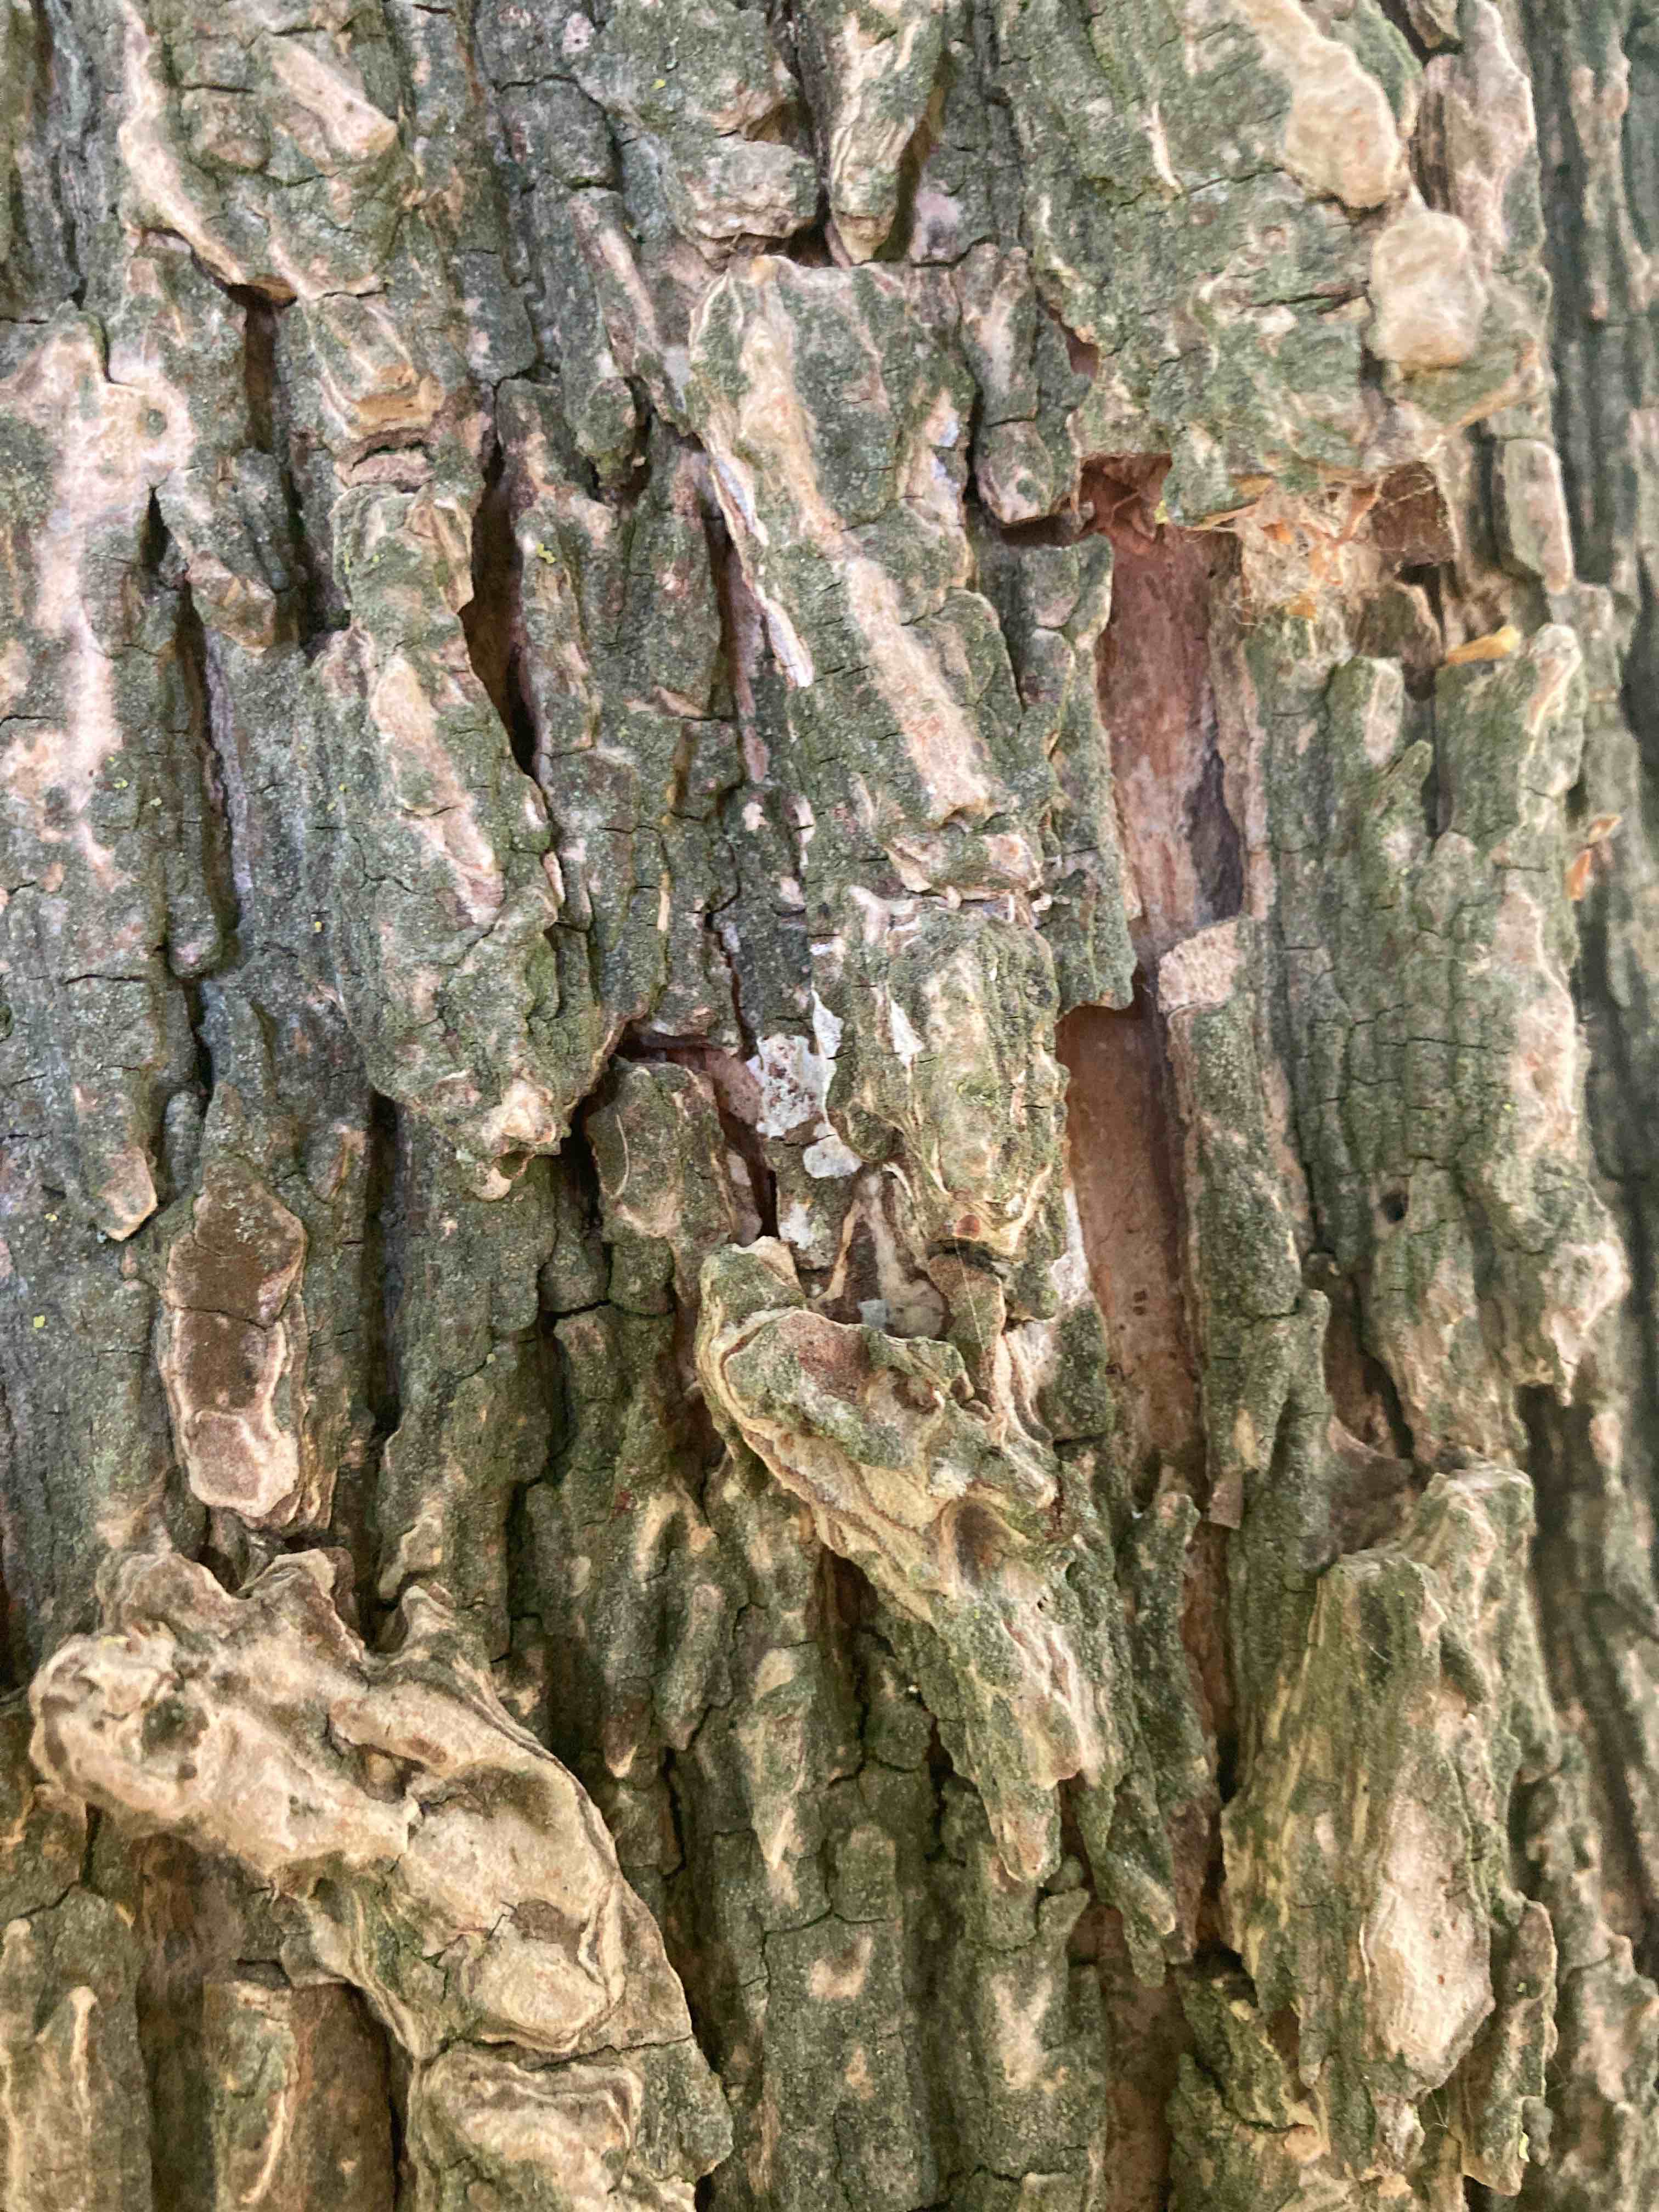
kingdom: Fungi
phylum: Basidiomycota
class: Agaricomycetes
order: Agaricales
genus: Dendrothele
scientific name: Dendrothele acerina
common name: navr-kalkplet
